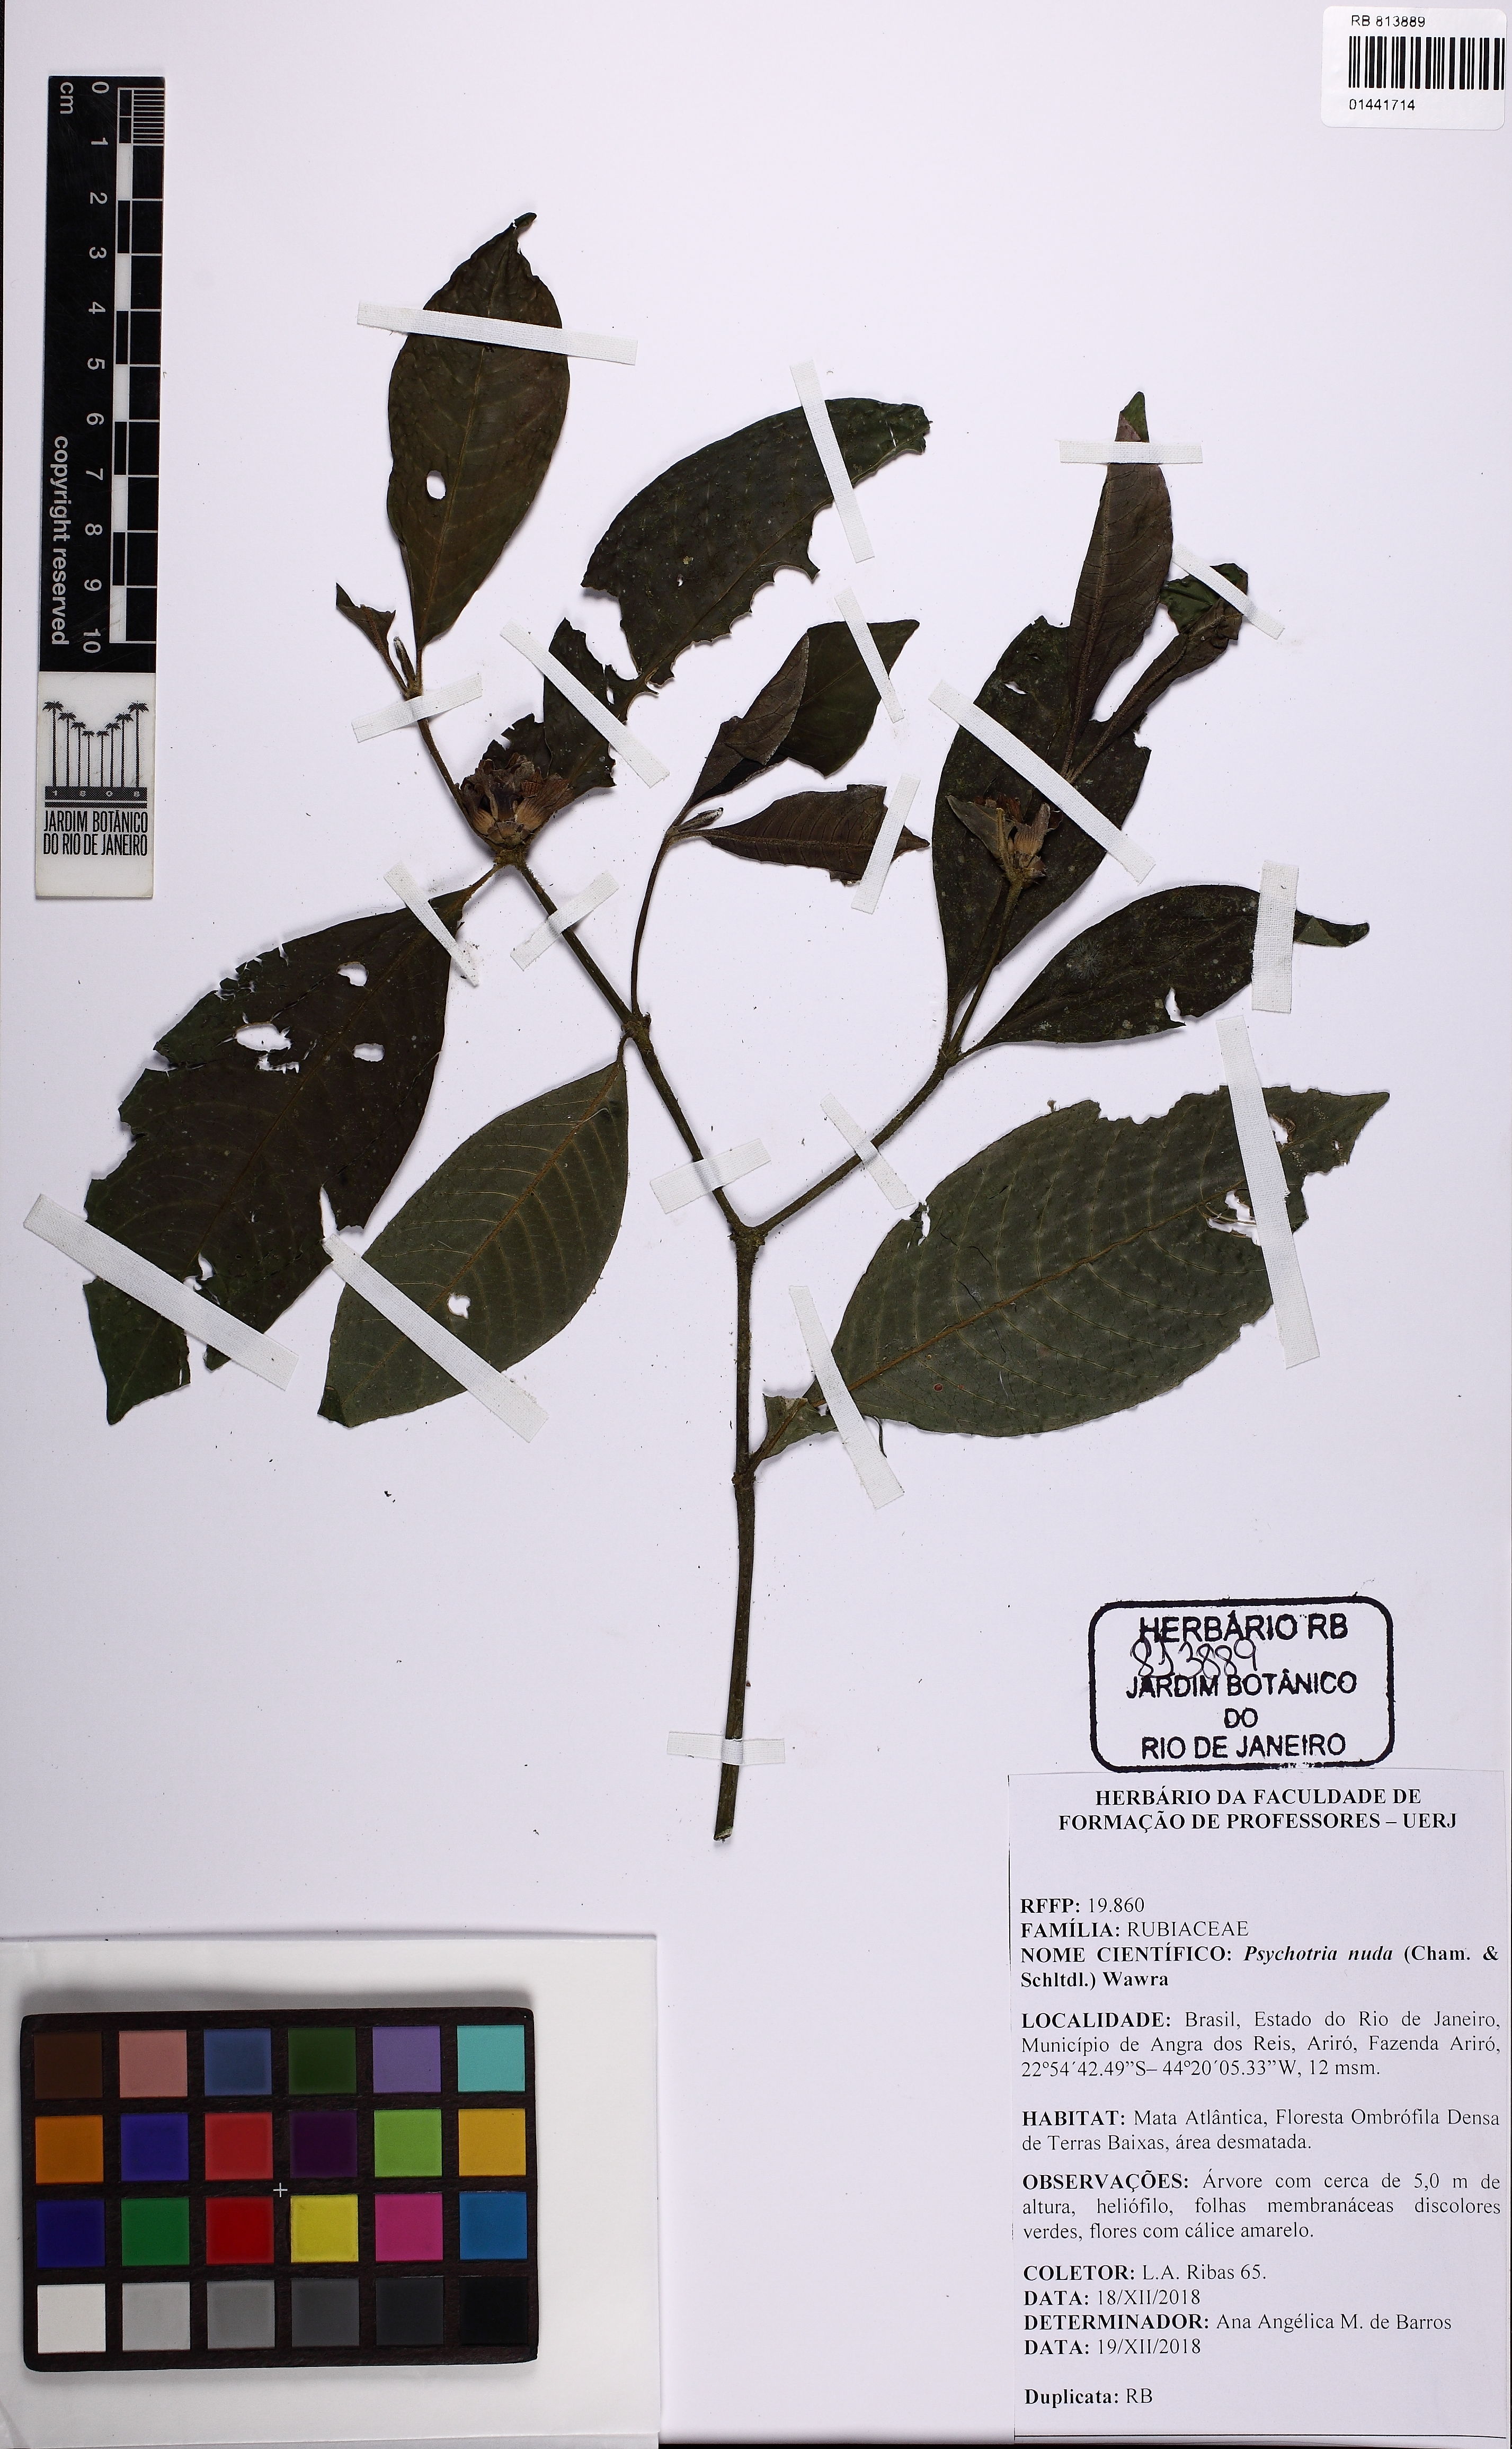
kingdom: Plantae
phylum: Tracheophyta
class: Magnoliopsida
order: Gentianales
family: Rubiaceae
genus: Psychotria
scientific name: Psychotria nuda
